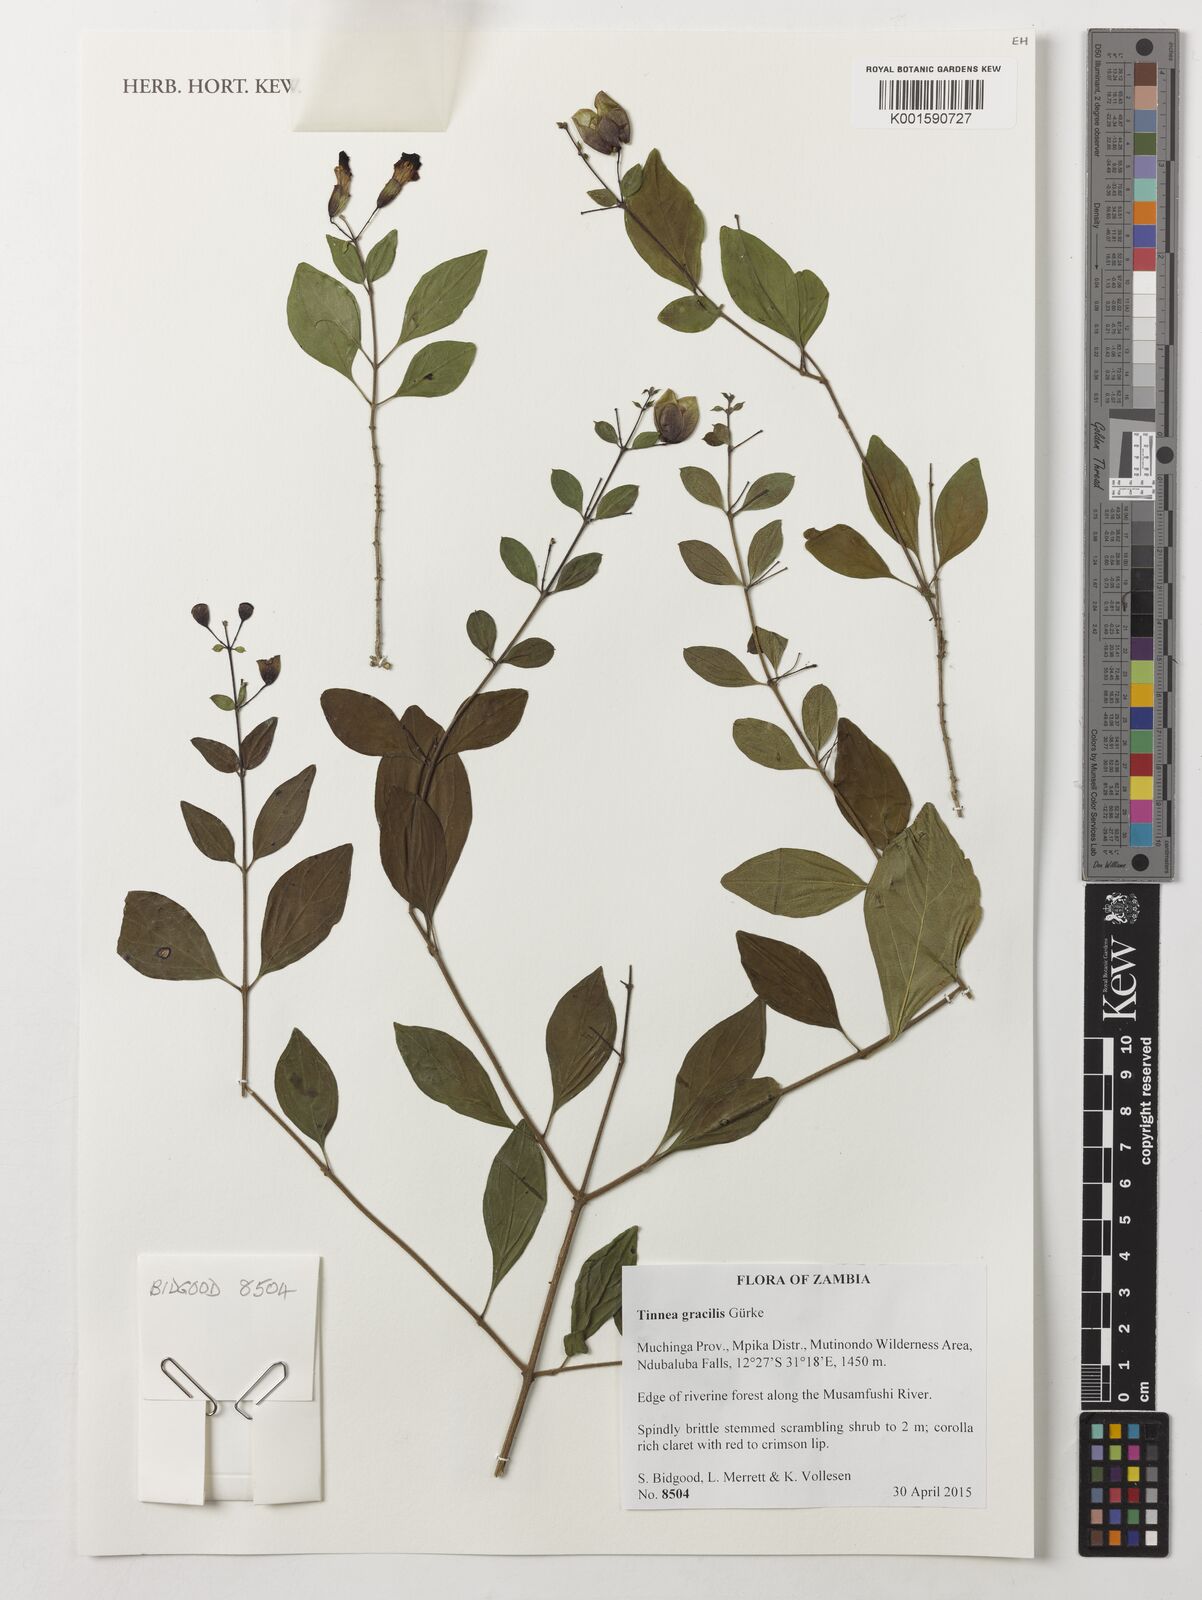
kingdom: Plantae
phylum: Tracheophyta
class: Magnoliopsida
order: Lamiales
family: Lamiaceae
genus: Tinnea
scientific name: Tinnea gracilis
